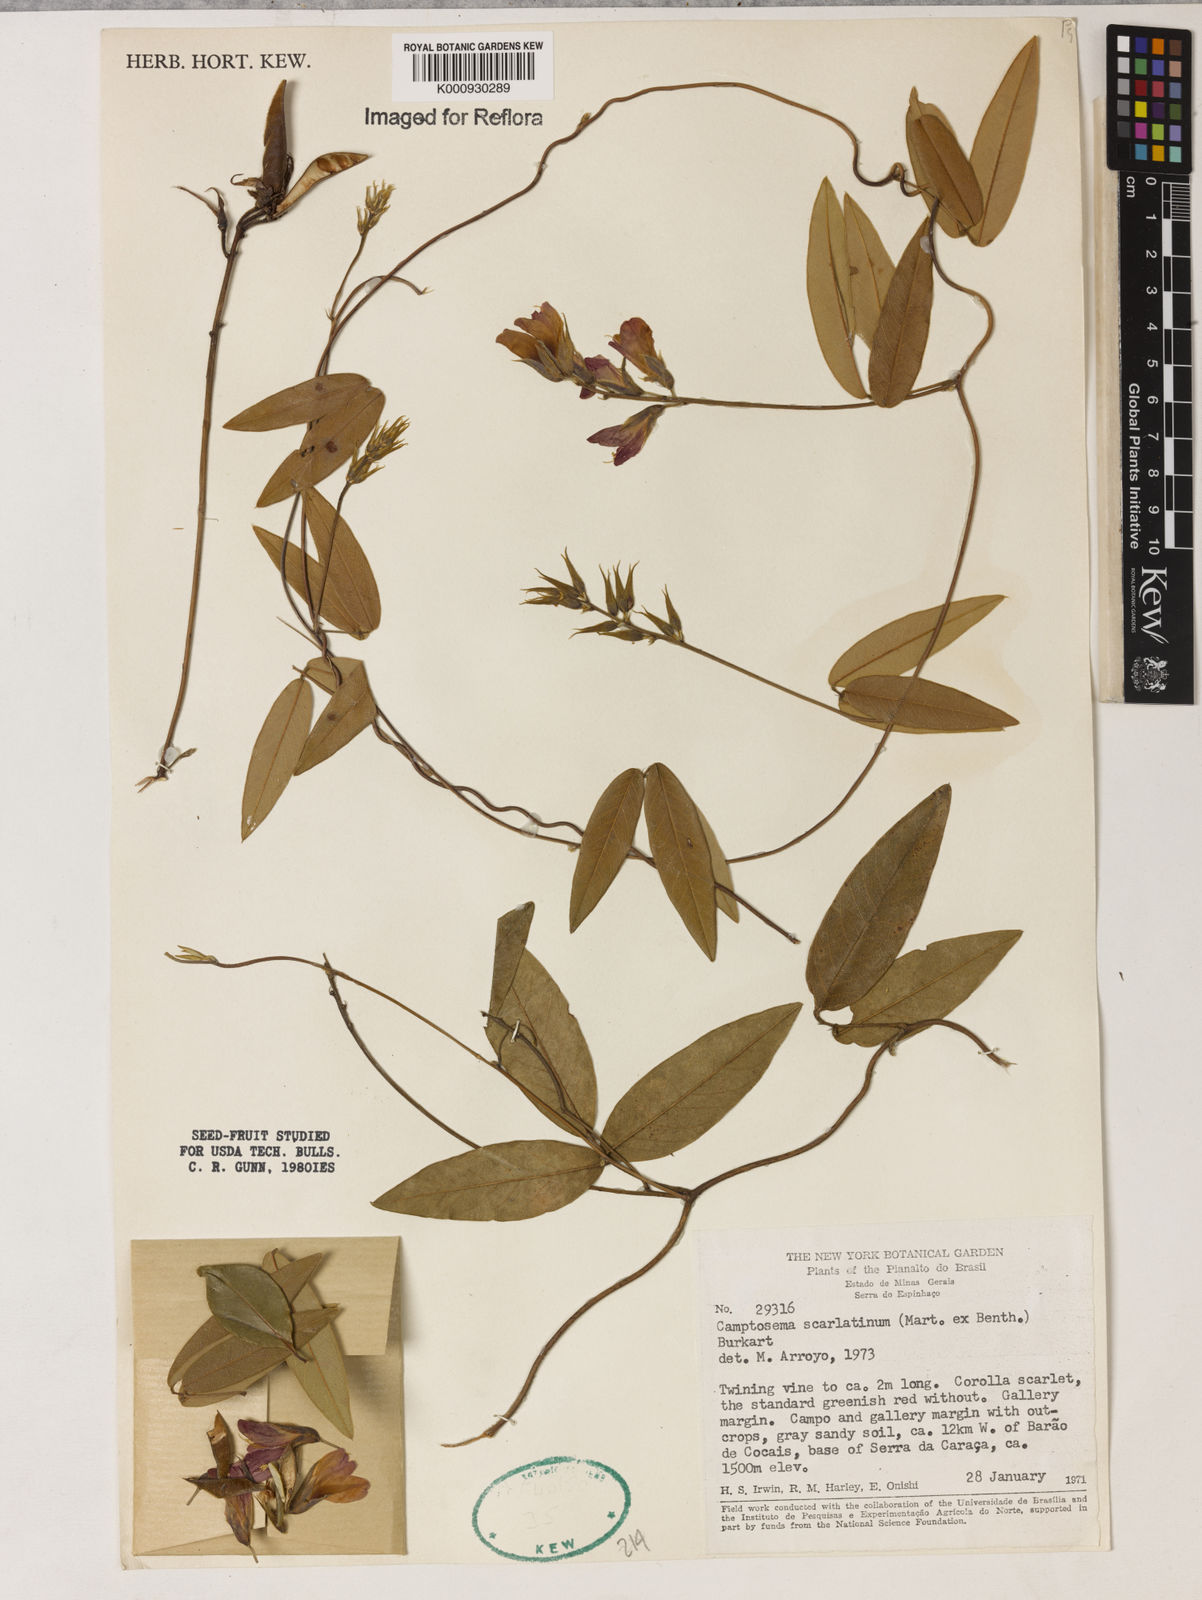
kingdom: Plantae
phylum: Tracheophyta
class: Magnoliopsida
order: Fabales
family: Fabaceae
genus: Betencourtia
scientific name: Betencourtia scarlatina
